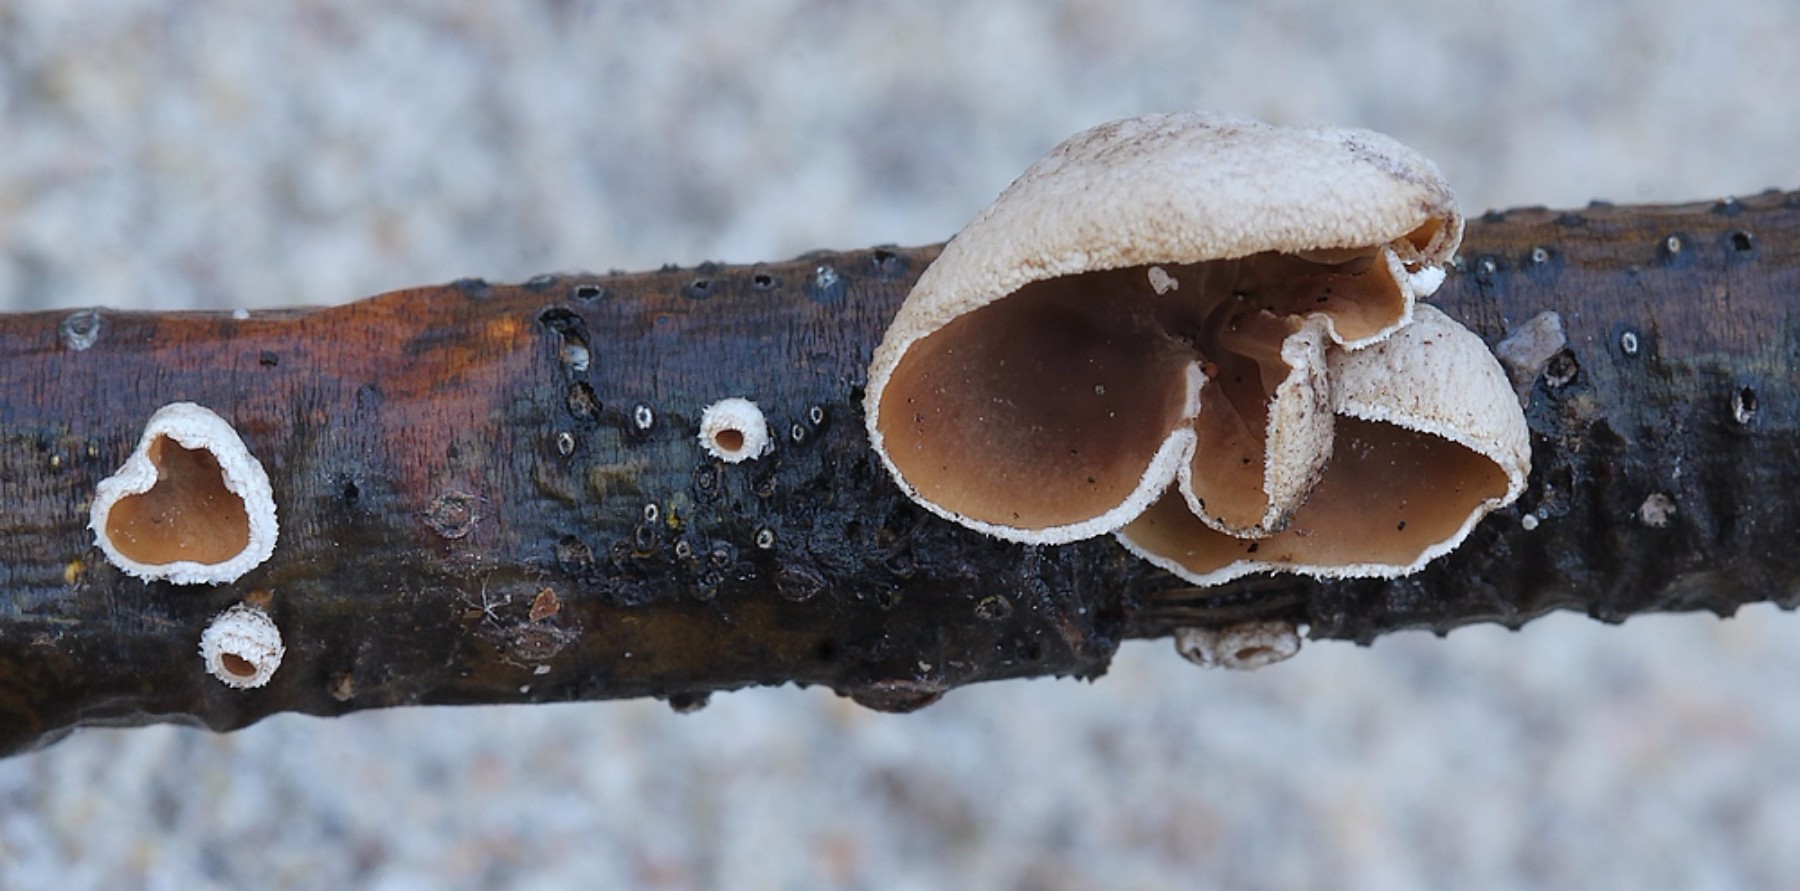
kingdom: Fungi
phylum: Basidiomycota
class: Agaricomycetes
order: Agaricales
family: Schizophyllaceae
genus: Schizophyllum
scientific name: Schizophyllum amplum
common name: poppel-hængeøre
